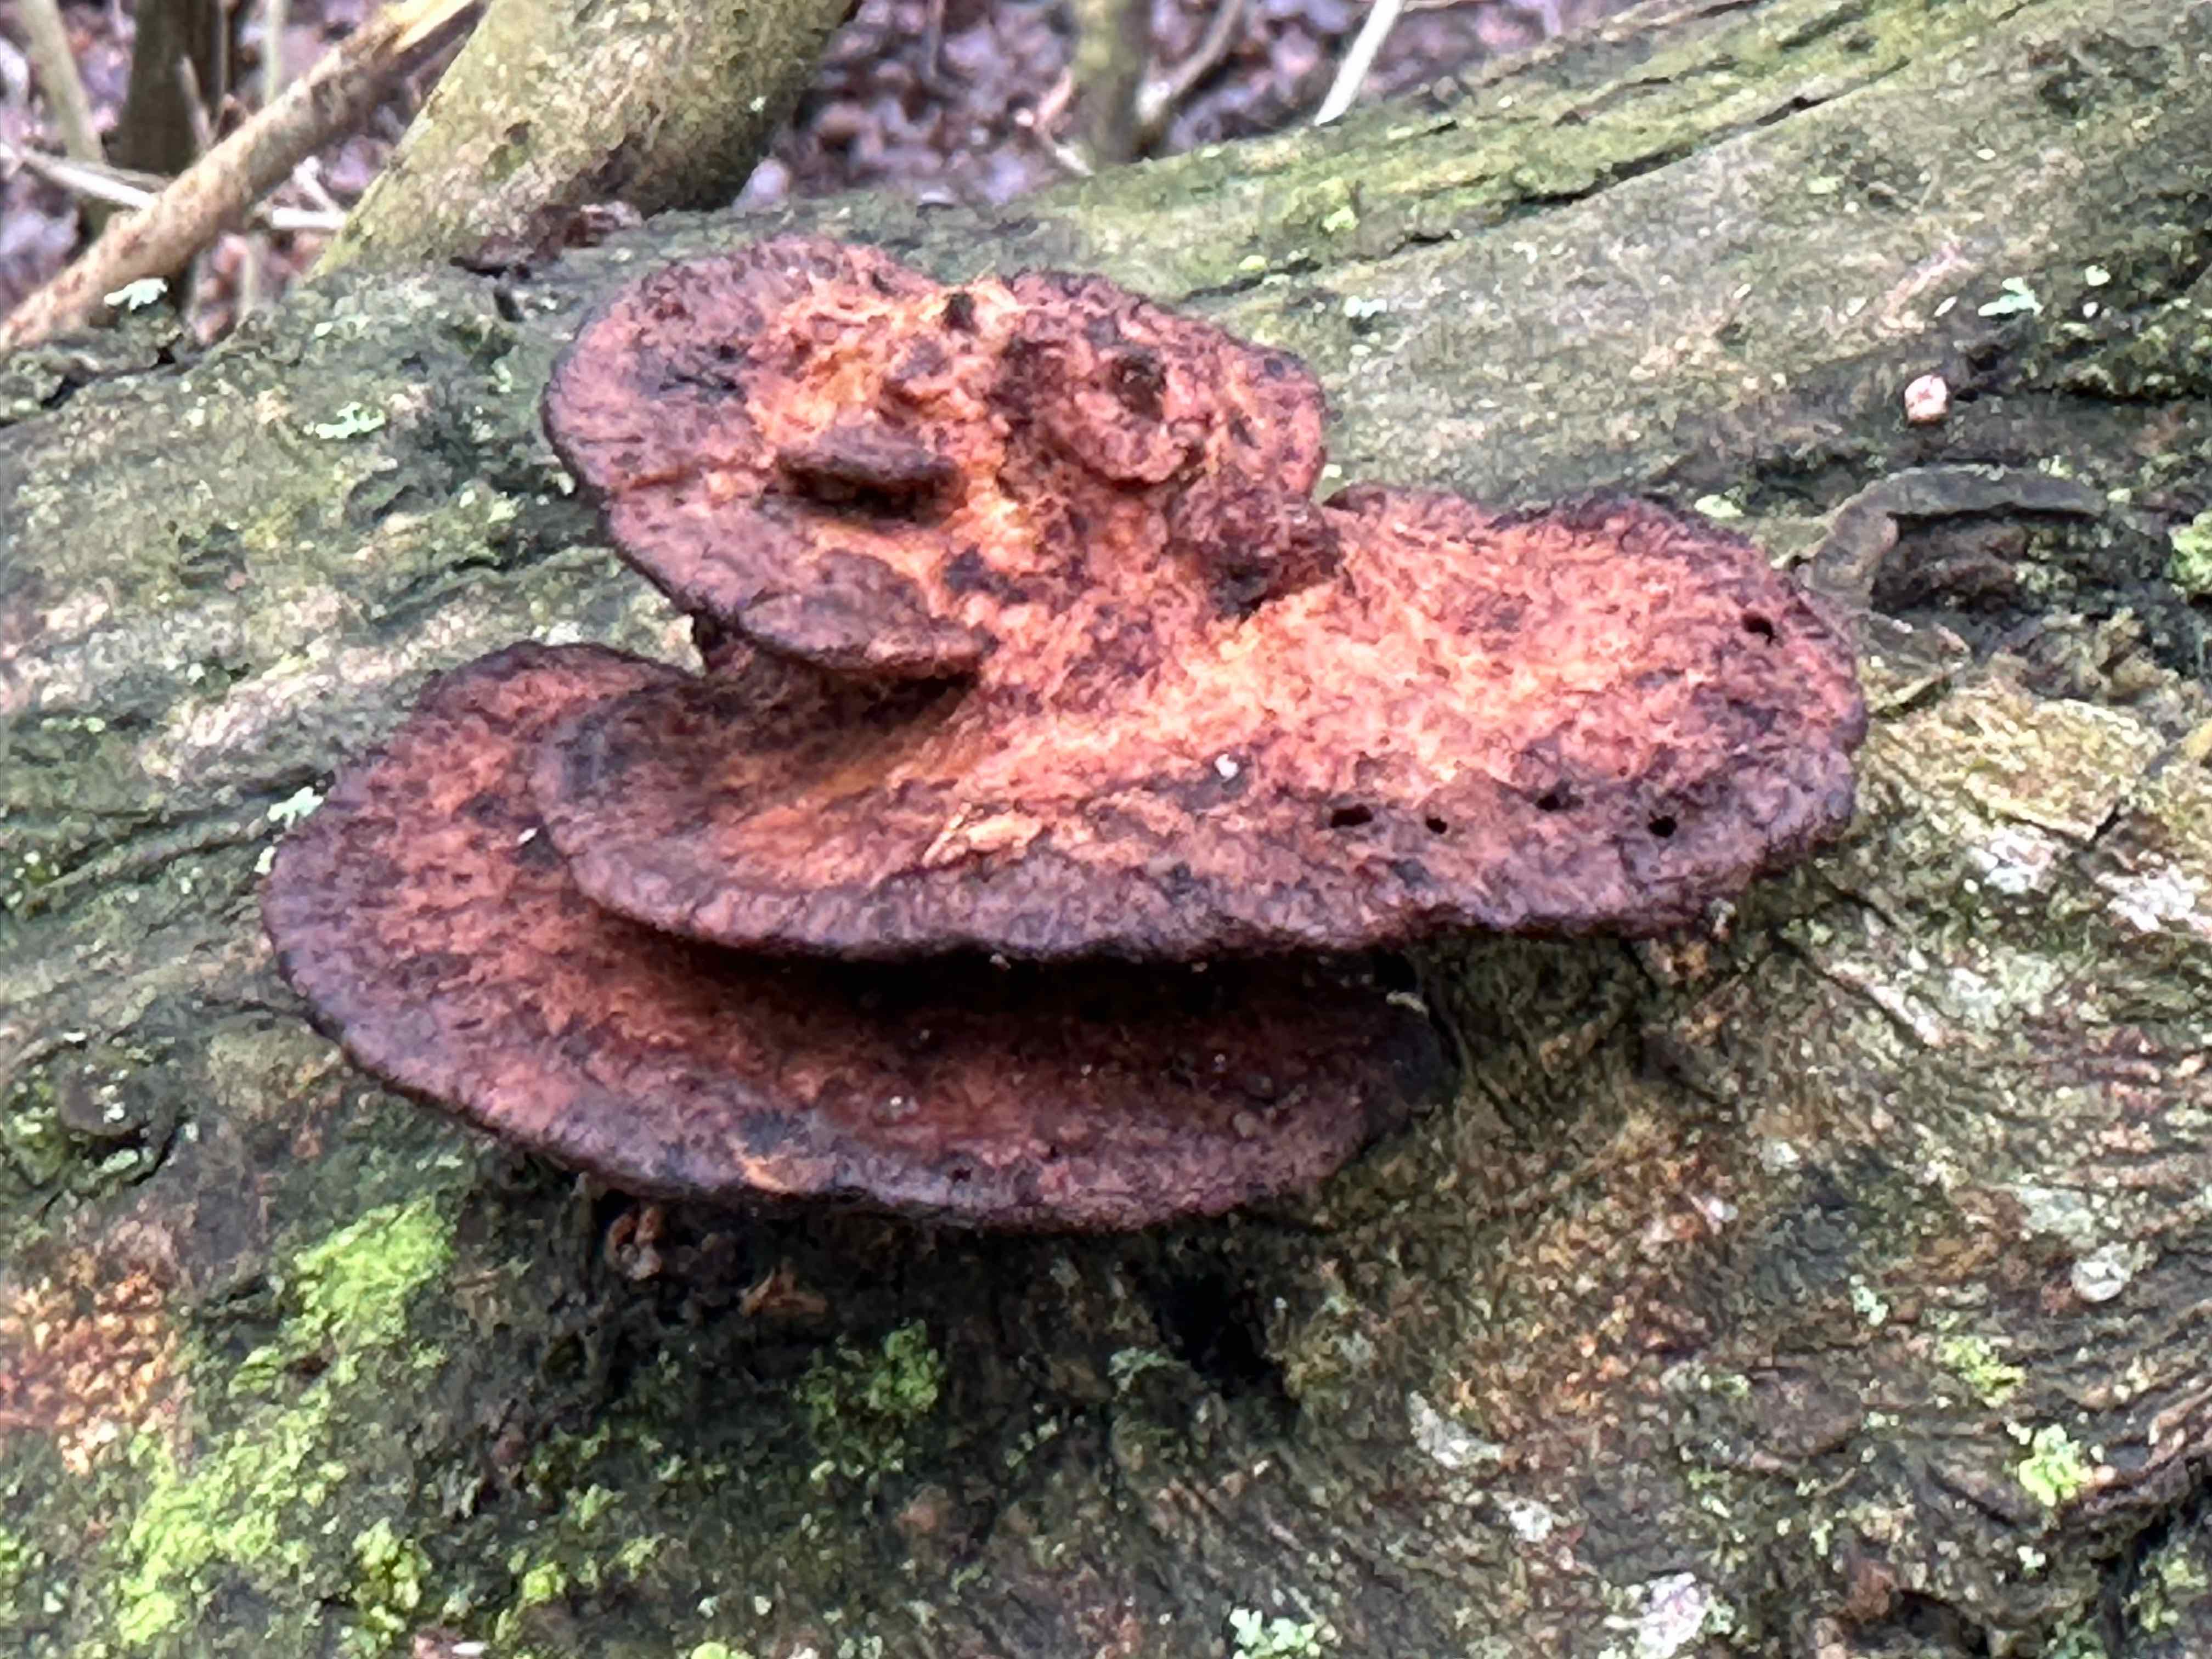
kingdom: Fungi
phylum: Basidiomycota
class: Agaricomycetes
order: Polyporales
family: Polyporaceae
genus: Daedaleopsis
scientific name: Daedaleopsis confragosa
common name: rødmende læderporesvamp
